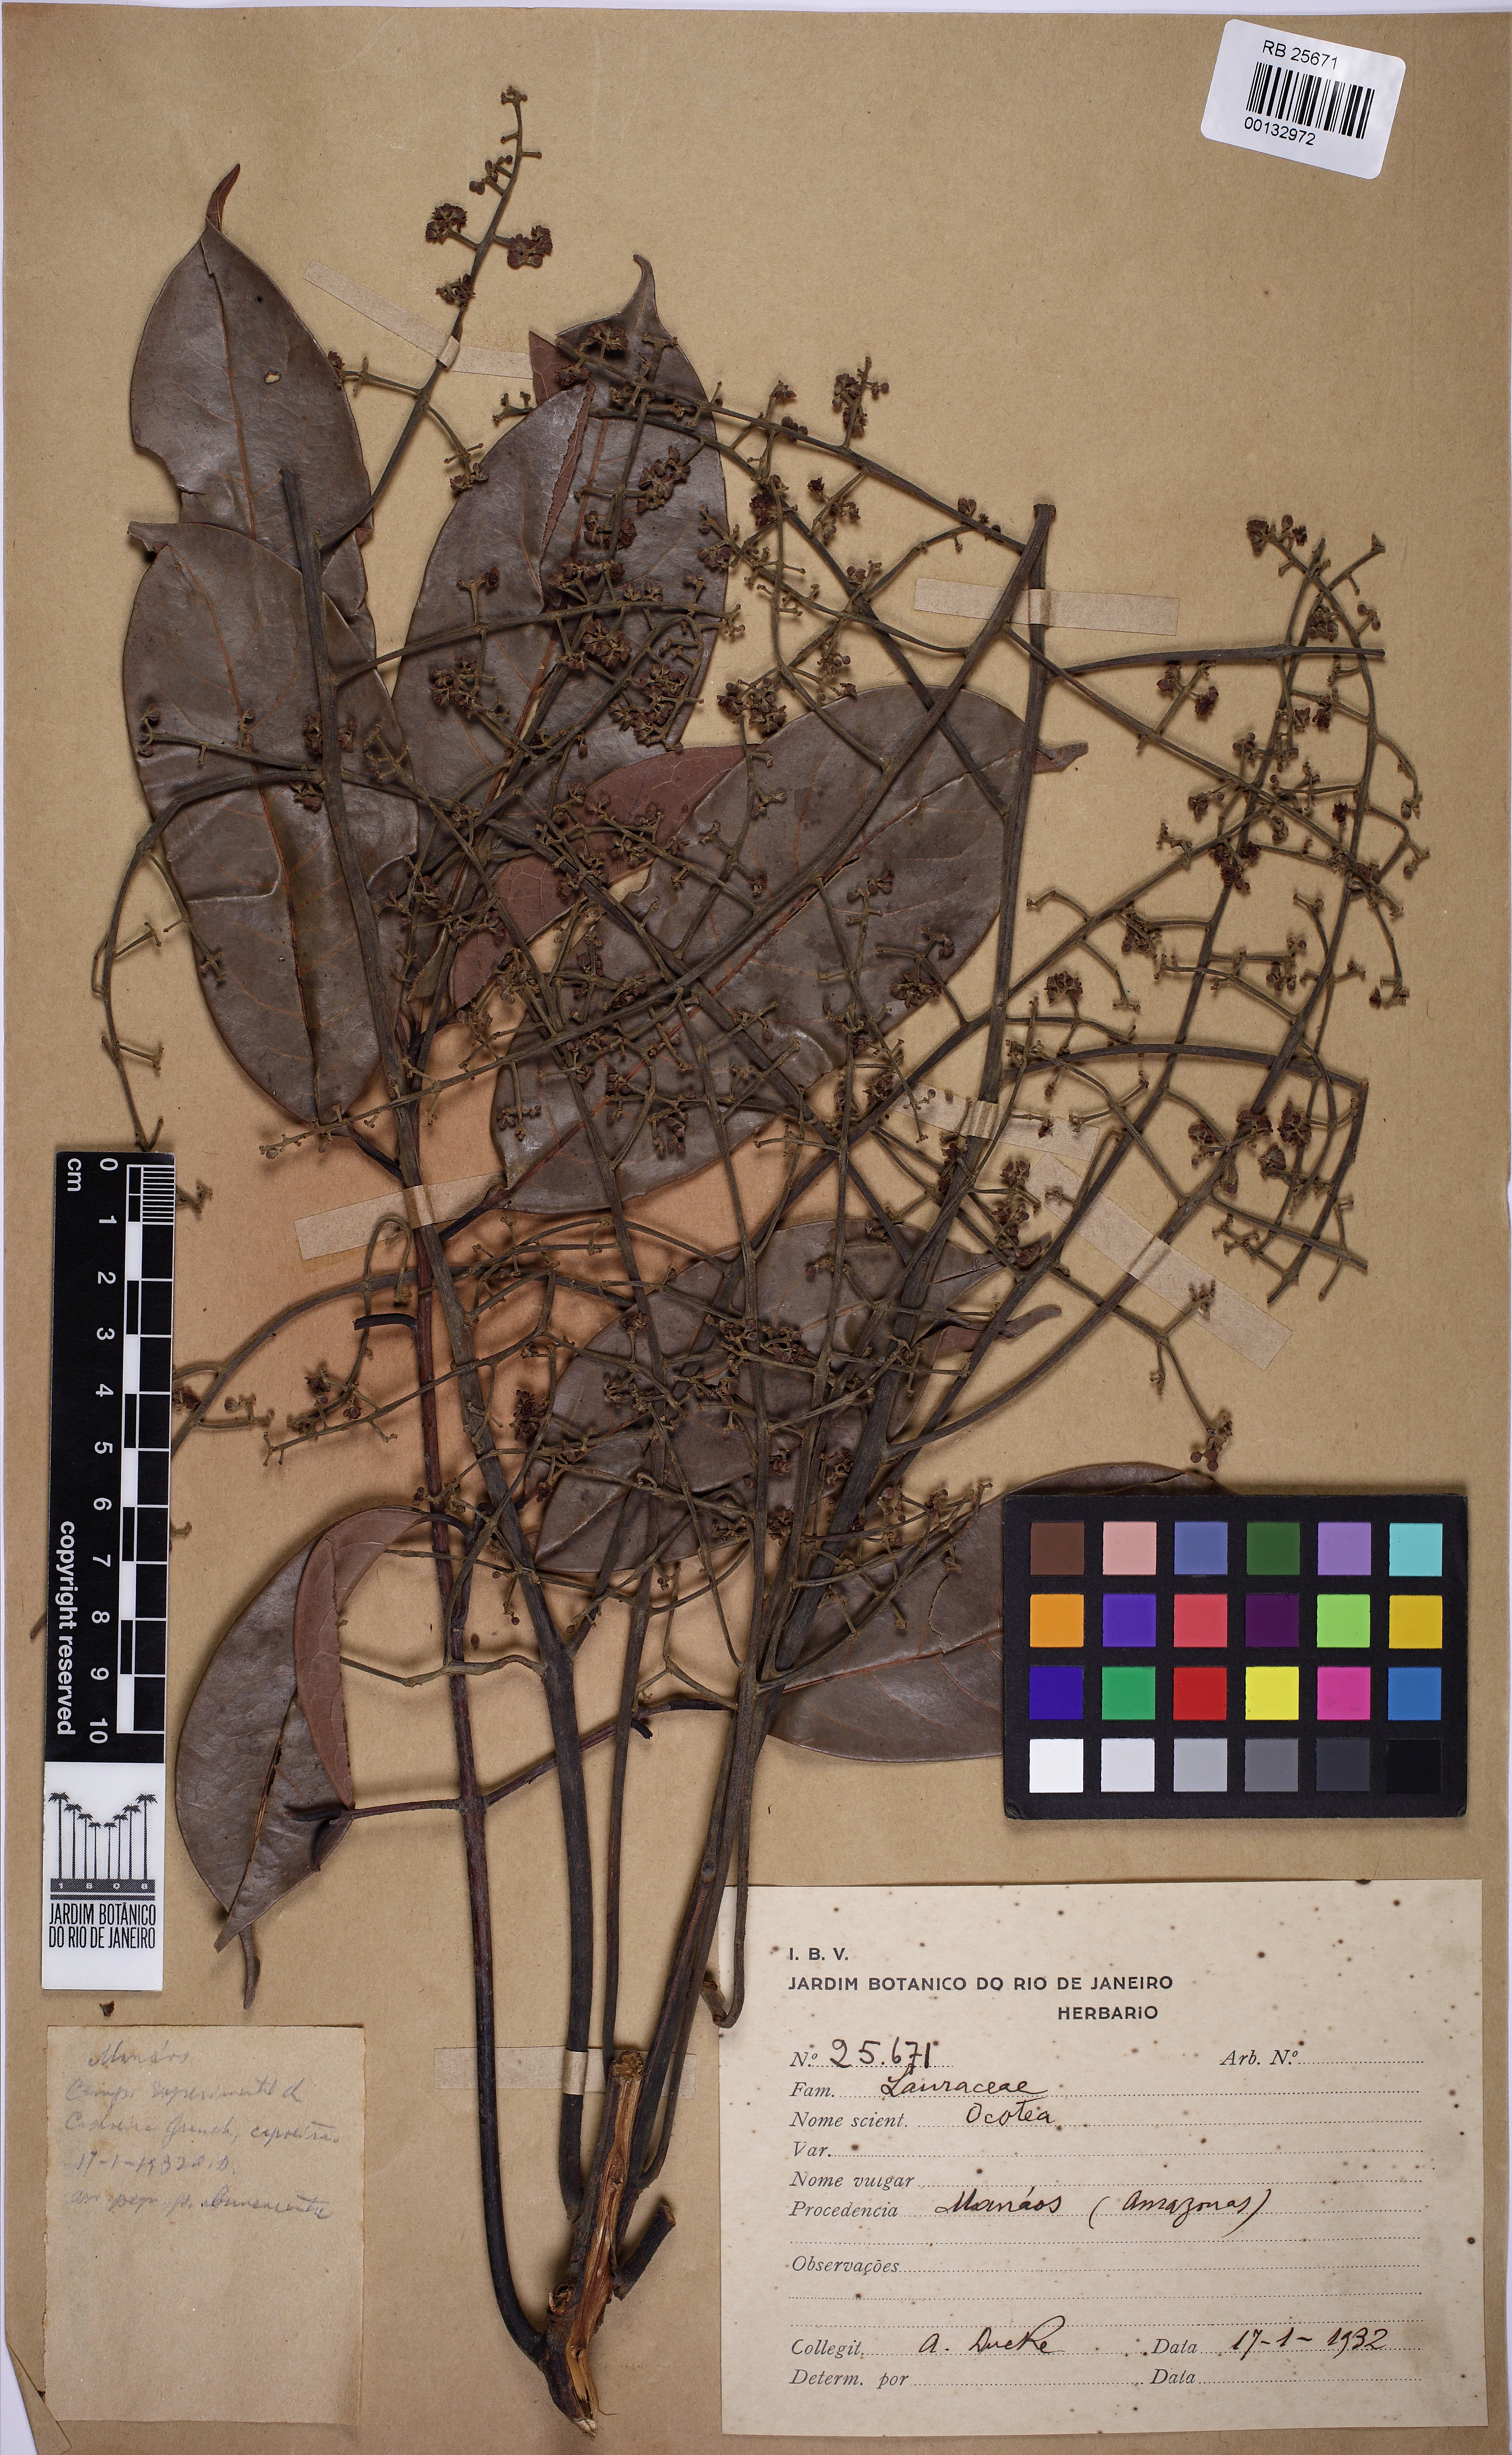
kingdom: Plantae
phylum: Tracheophyta
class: Magnoliopsida
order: Laurales
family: Lauraceae
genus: Ocotea
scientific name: Ocotea
